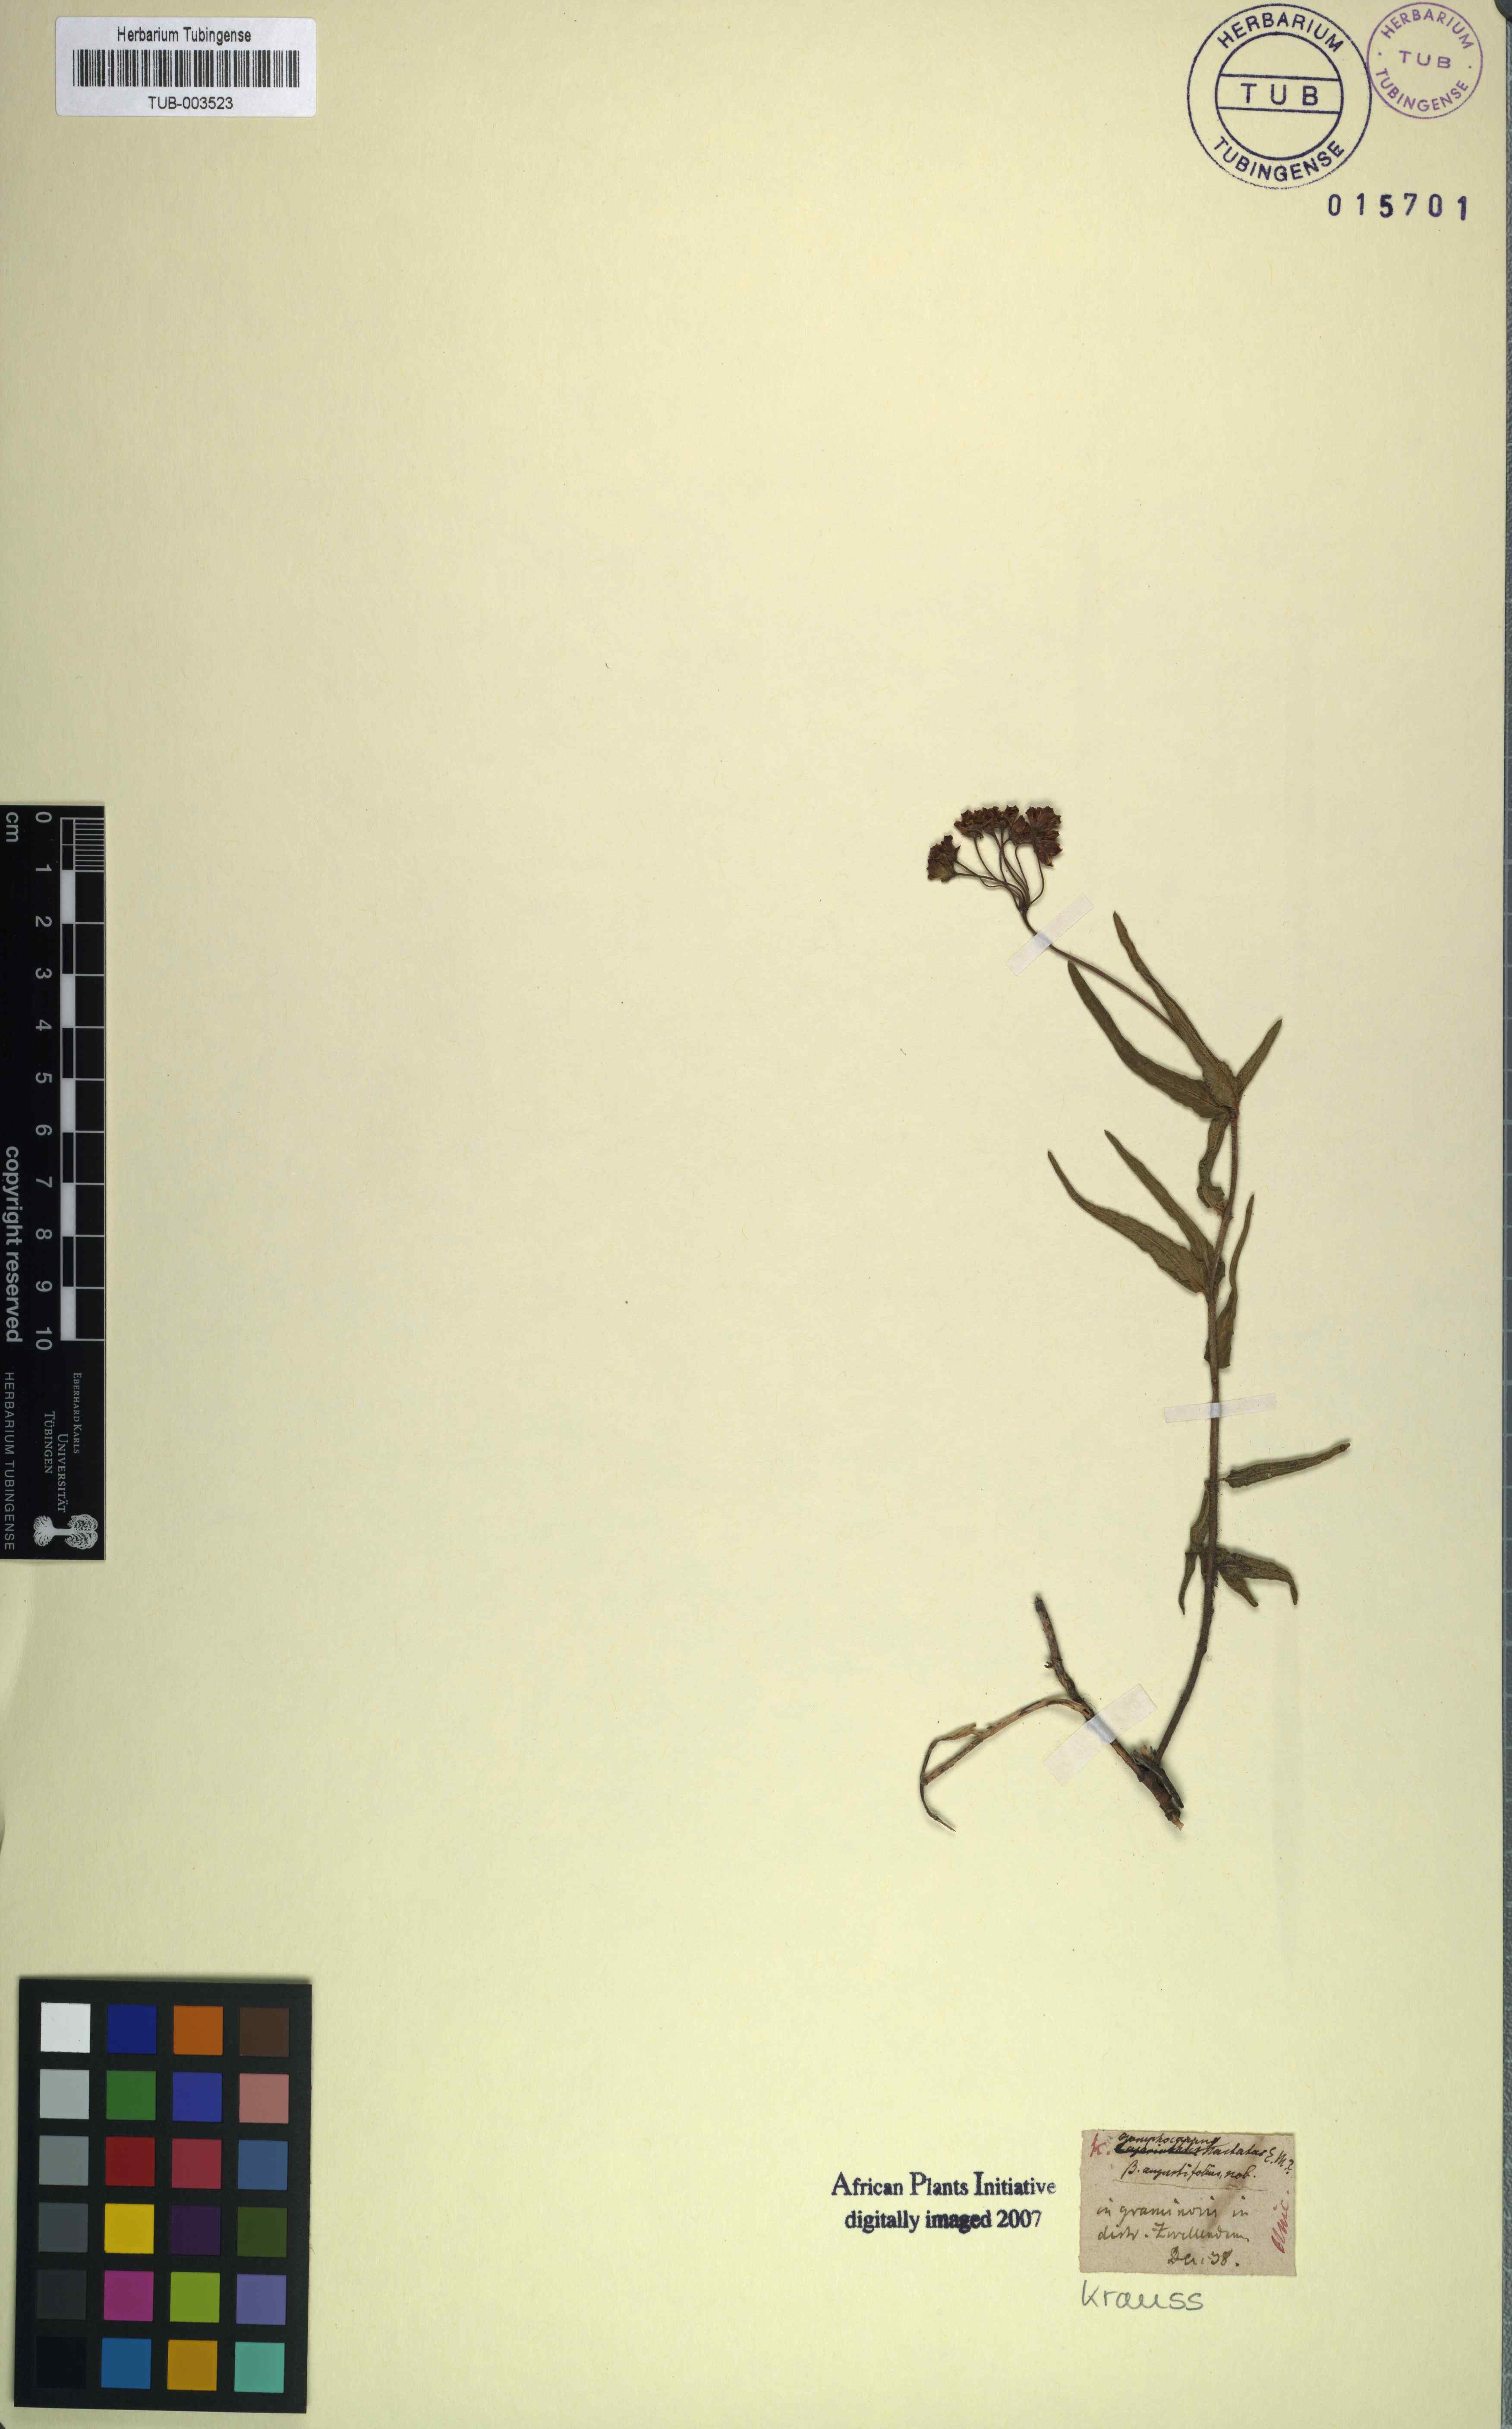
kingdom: Plantae
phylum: Tracheophyta
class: Magnoliopsida
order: Gentianales
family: Apocynaceae
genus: Asclepias
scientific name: Asclepias flanaganii
